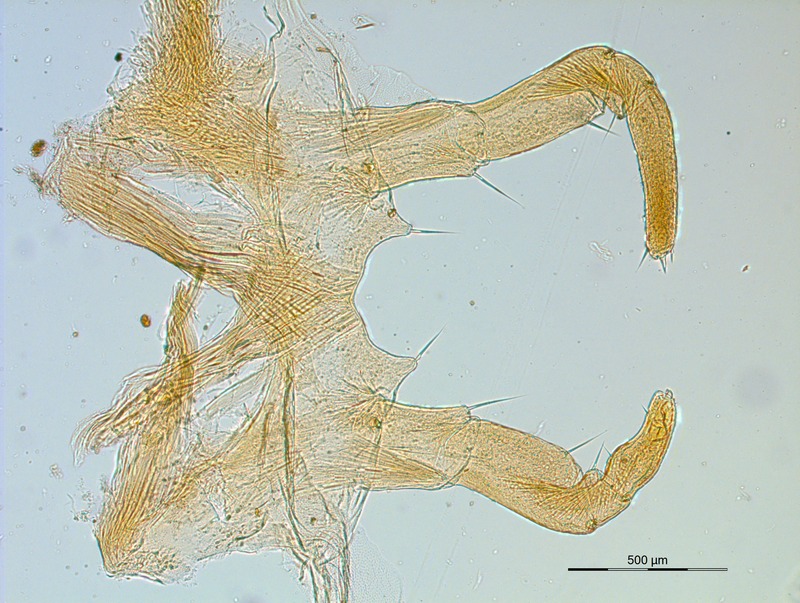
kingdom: Animalia
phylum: Arthropoda
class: Diplopoda
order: Glomerida
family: Glomeridae
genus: Onychoglomeris
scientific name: Onychoglomeris fagi
